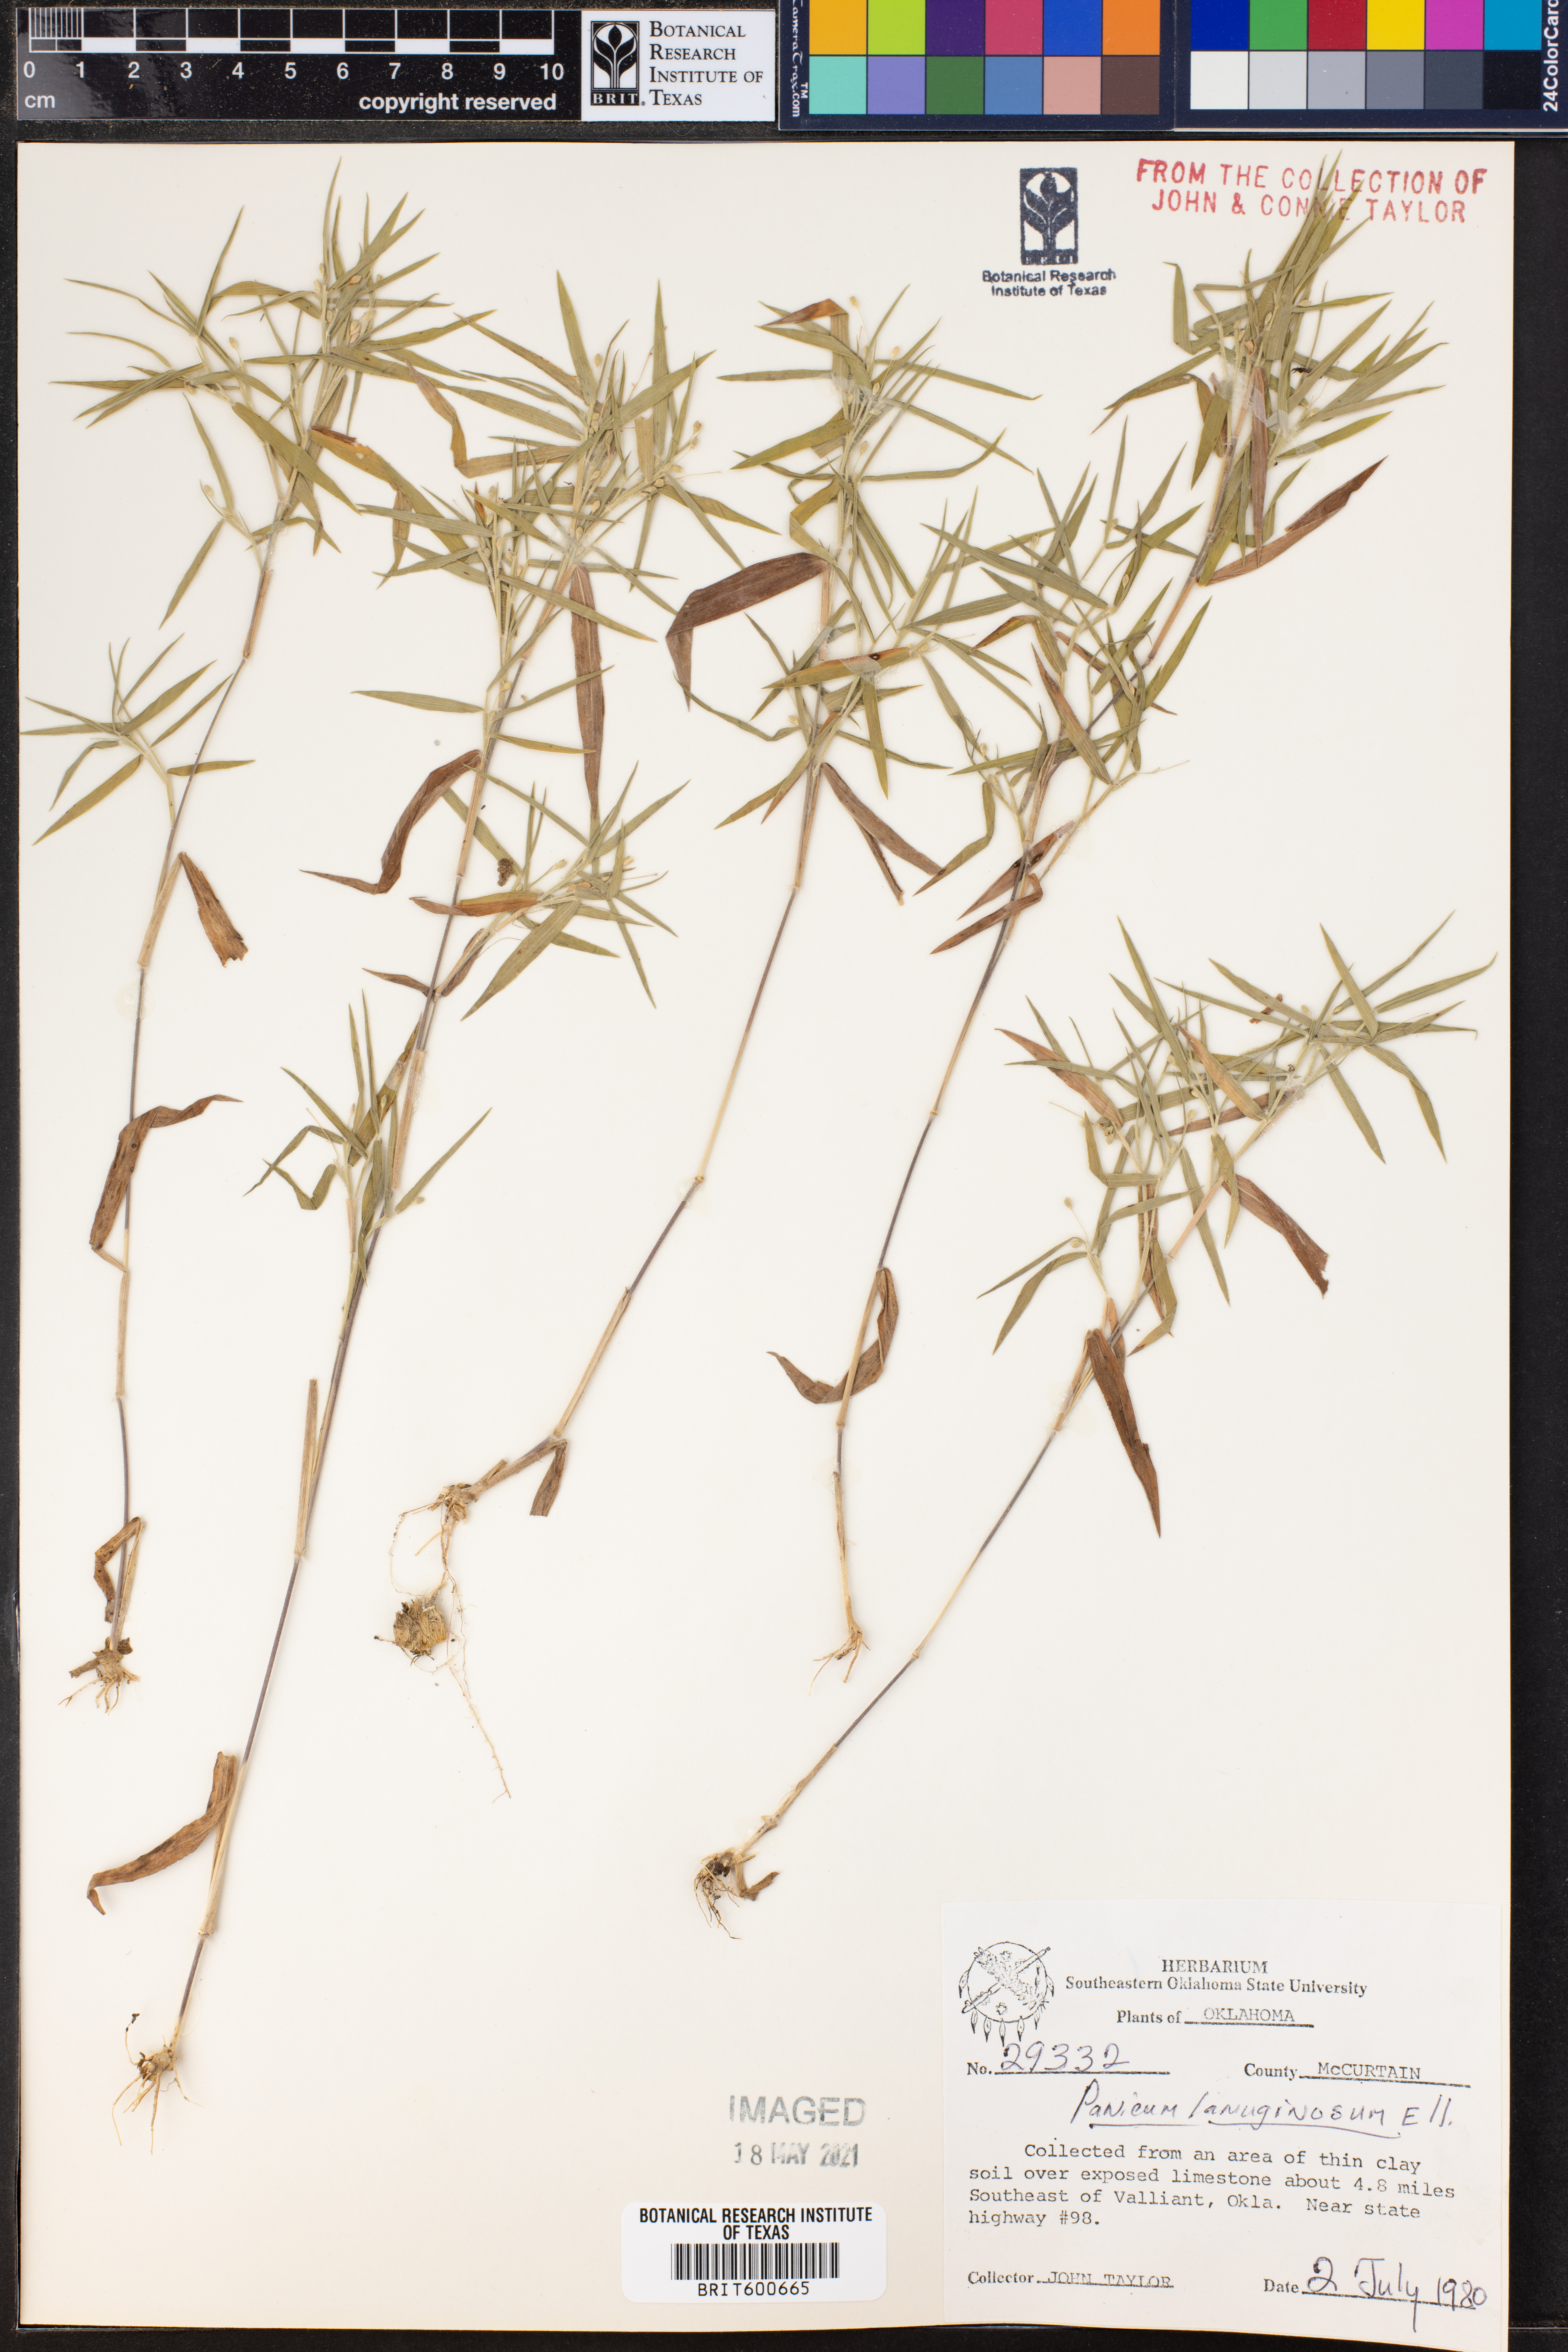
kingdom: Plantae
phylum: Tracheophyta
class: Liliopsida
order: Poales
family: Poaceae
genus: Dichanthelium
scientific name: Dichanthelium lanuginosum
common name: Woolly panicgrass
